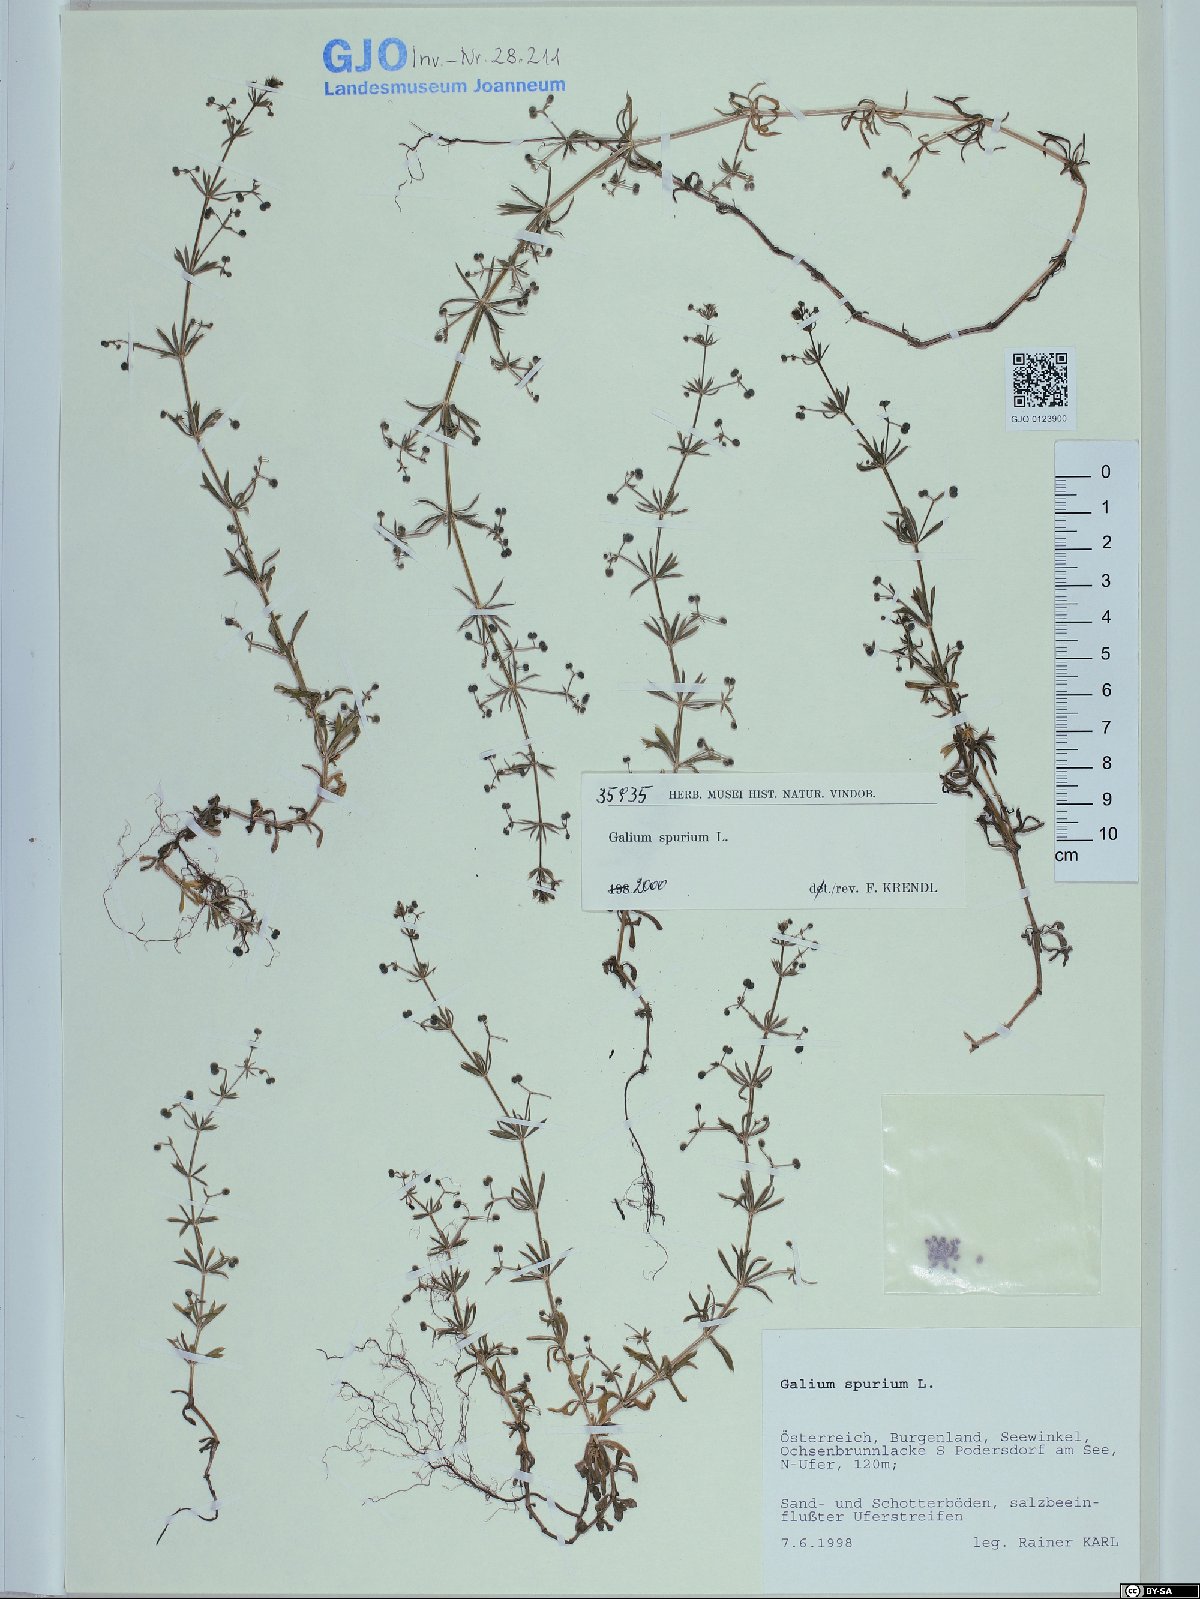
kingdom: Plantae
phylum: Tracheophyta
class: Magnoliopsida
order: Gentianales
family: Rubiaceae
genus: Galium
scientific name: Galium spurium
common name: False cleavers
